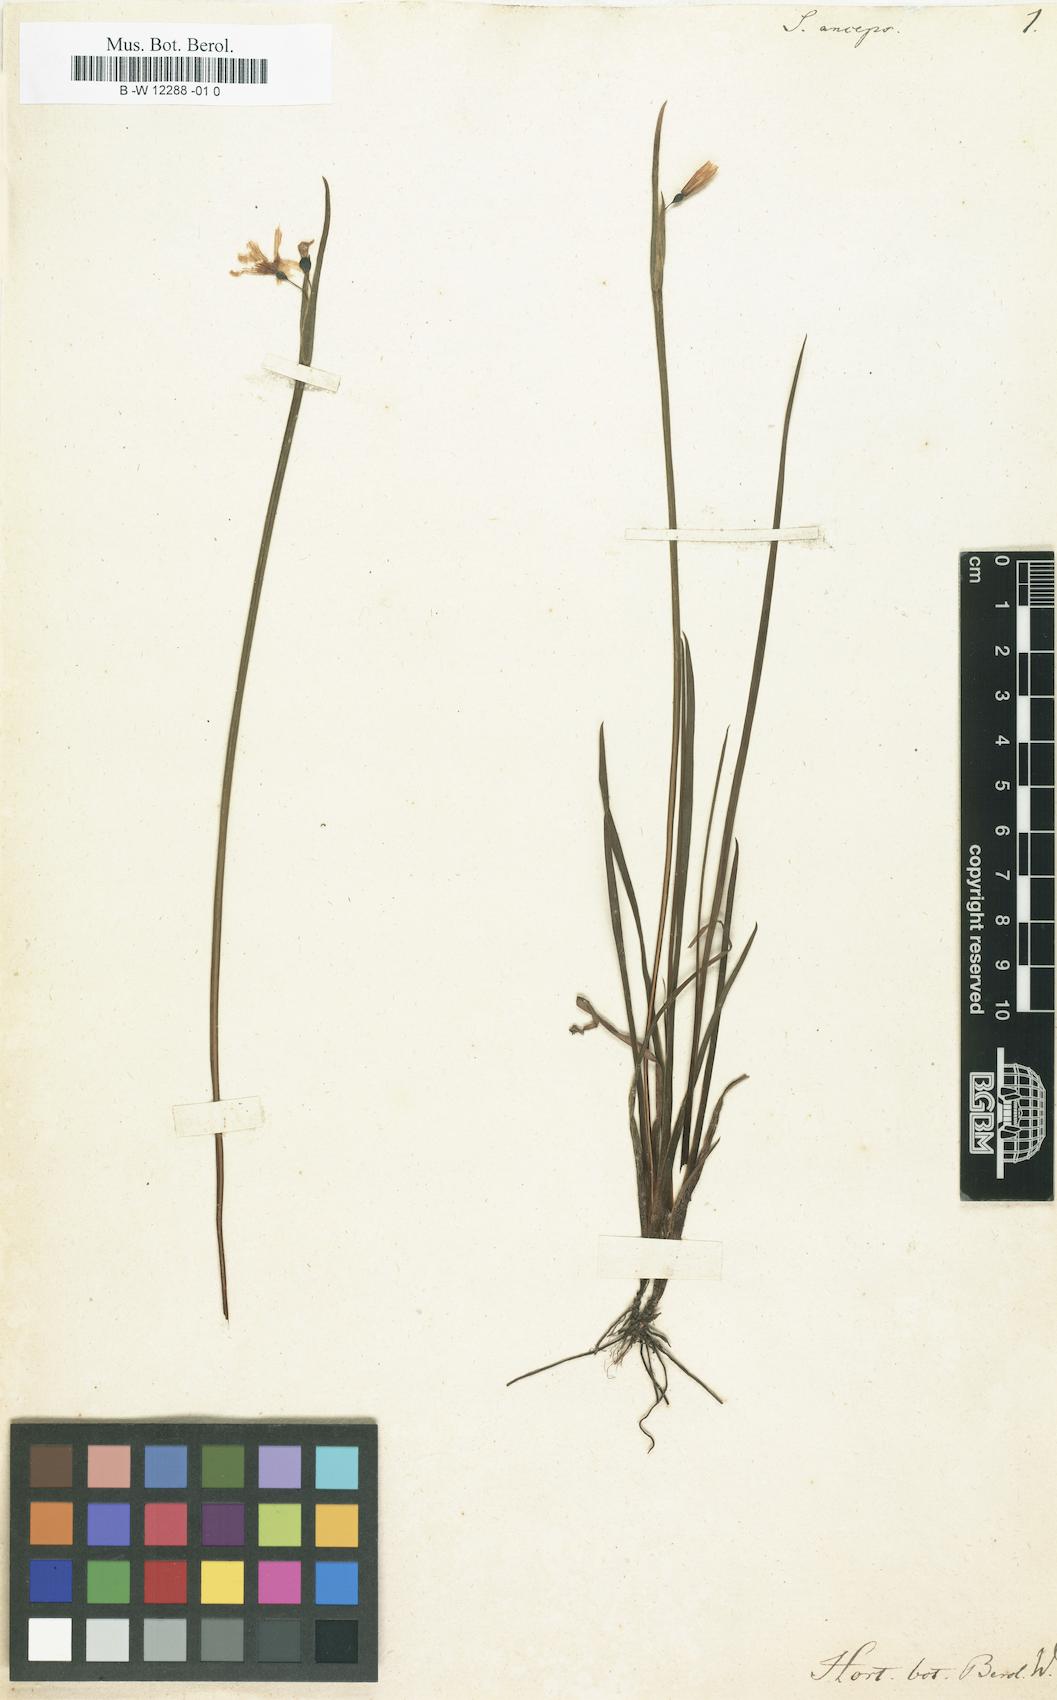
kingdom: Plantae
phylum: Tracheophyta
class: Liliopsida
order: Asparagales
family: Iridaceae
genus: Sisyrinchium
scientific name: Sisyrinchium angustifolium
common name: Narrow-leaf blue-eyed-grass
